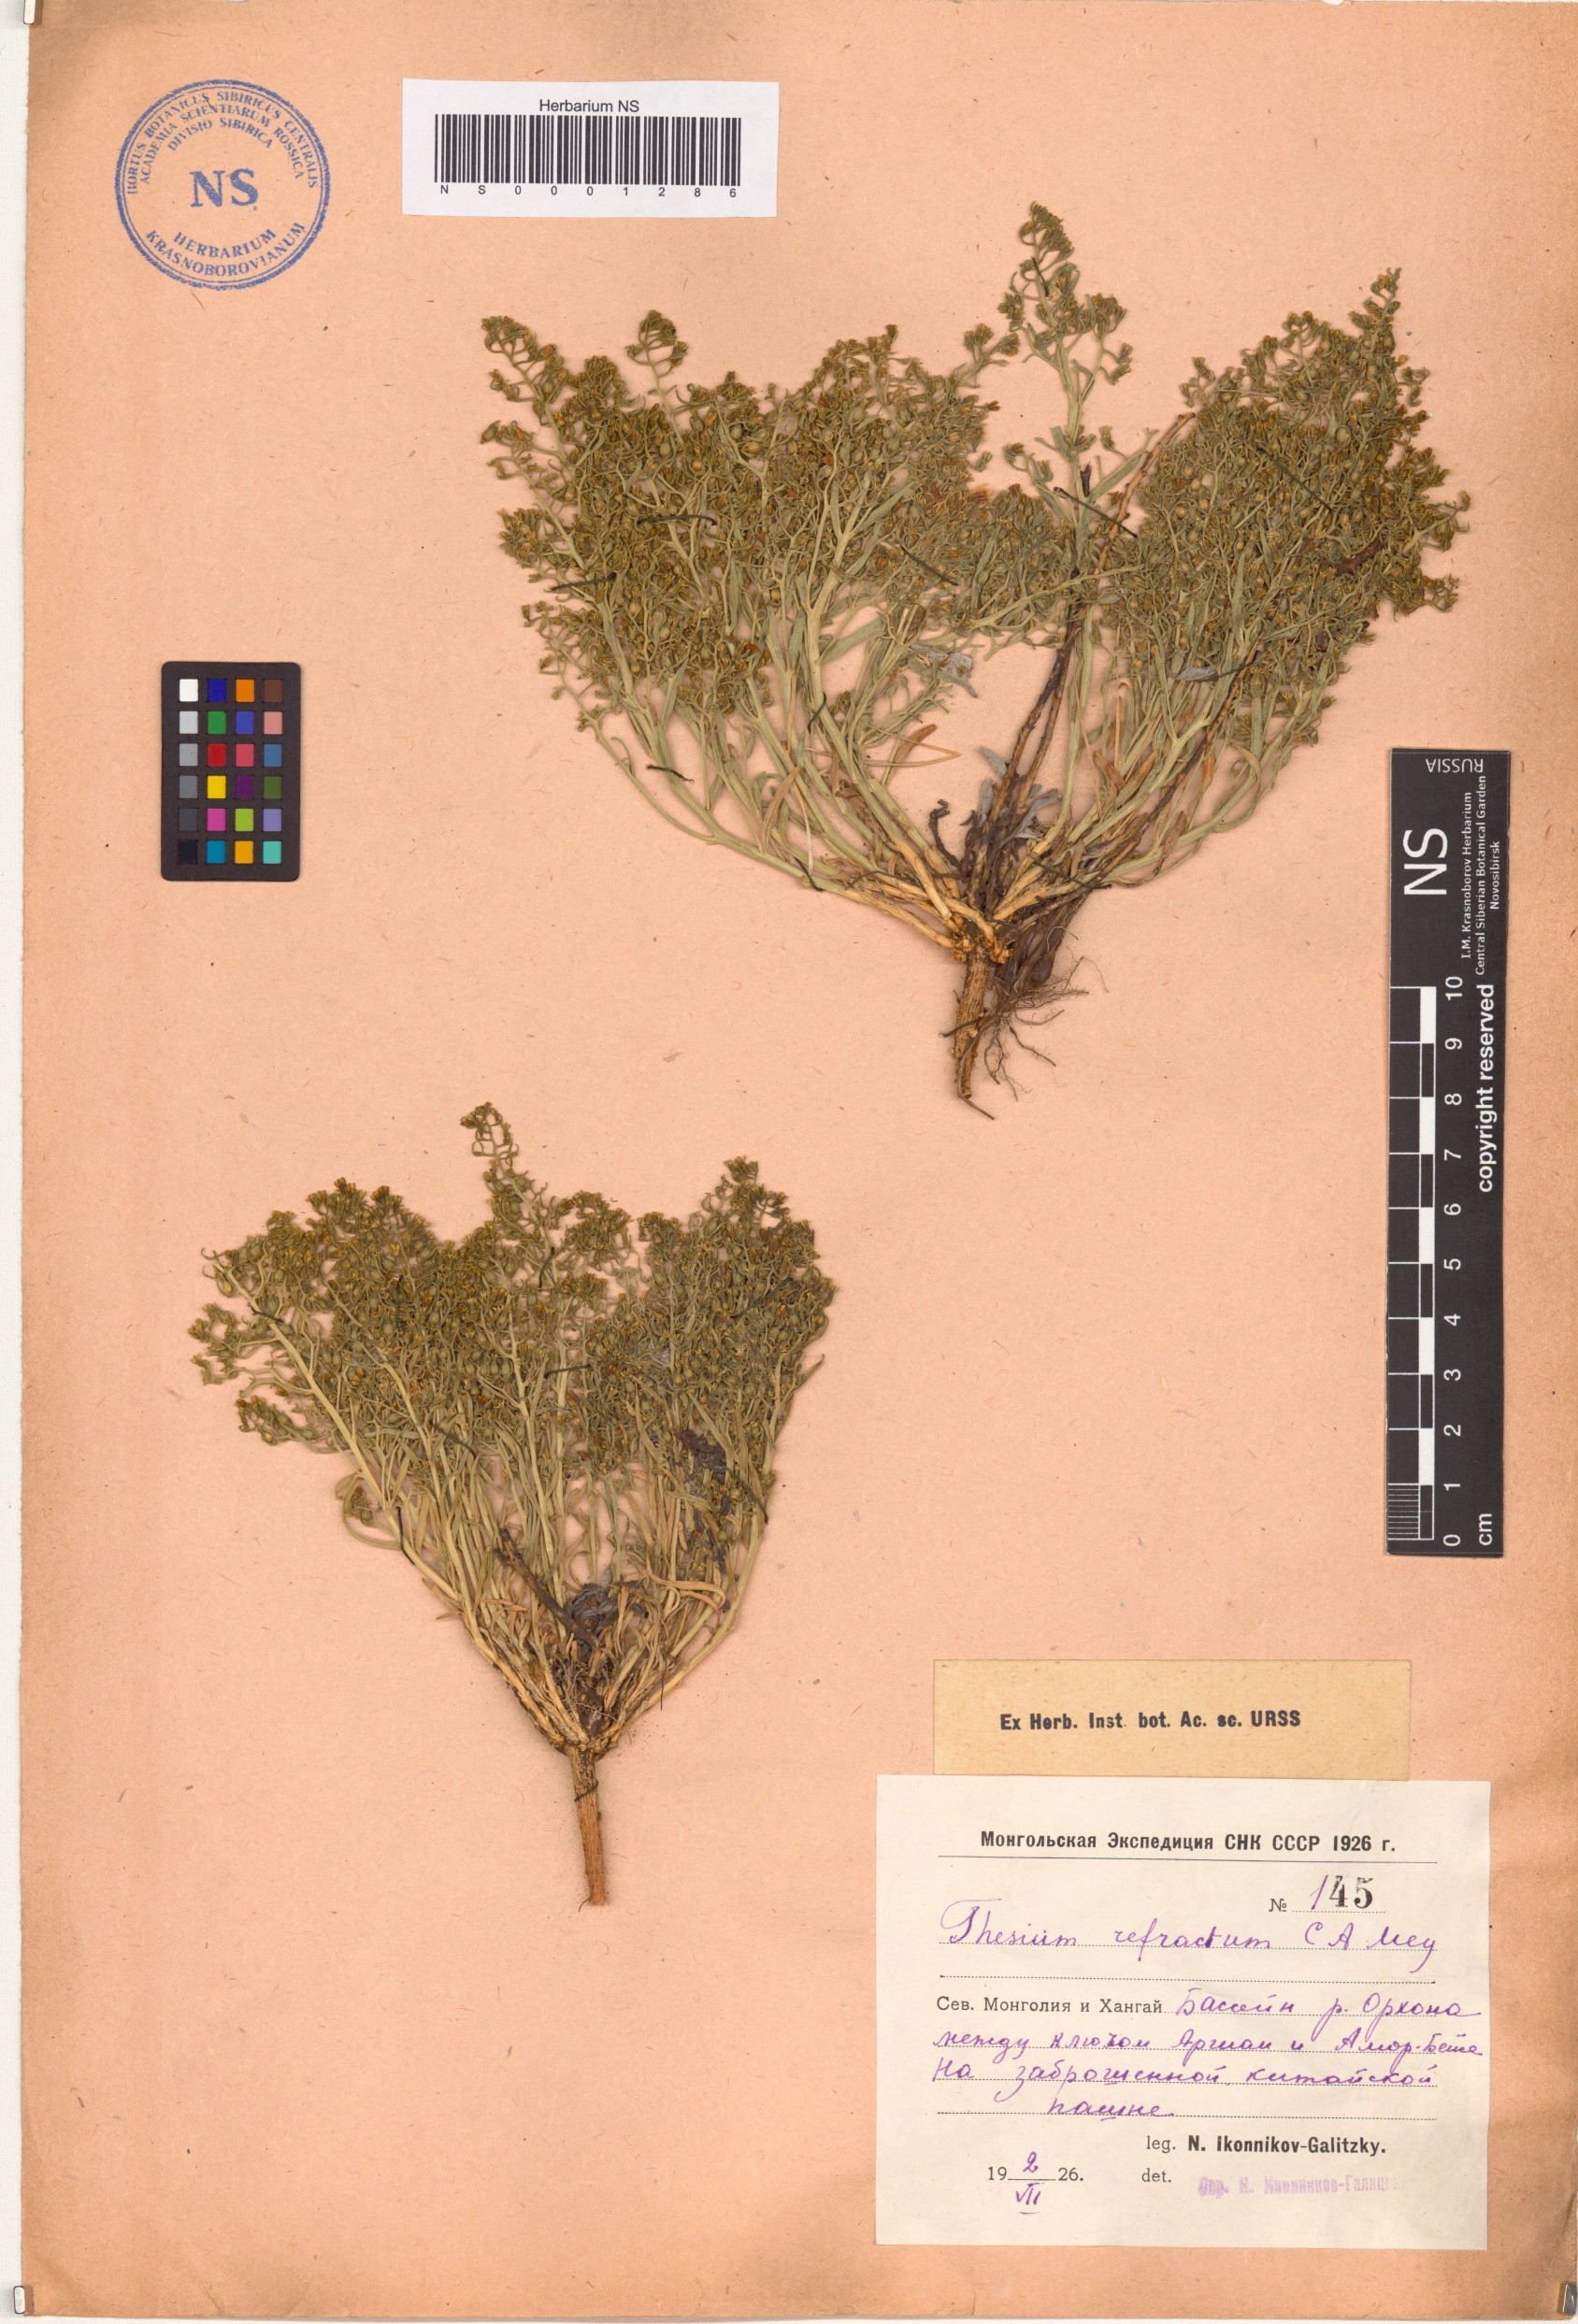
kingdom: Plantae
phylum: Tracheophyta
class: Magnoliopsida
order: Santalales
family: Thesiaceae
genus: Thesium
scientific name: Thesium refractum
